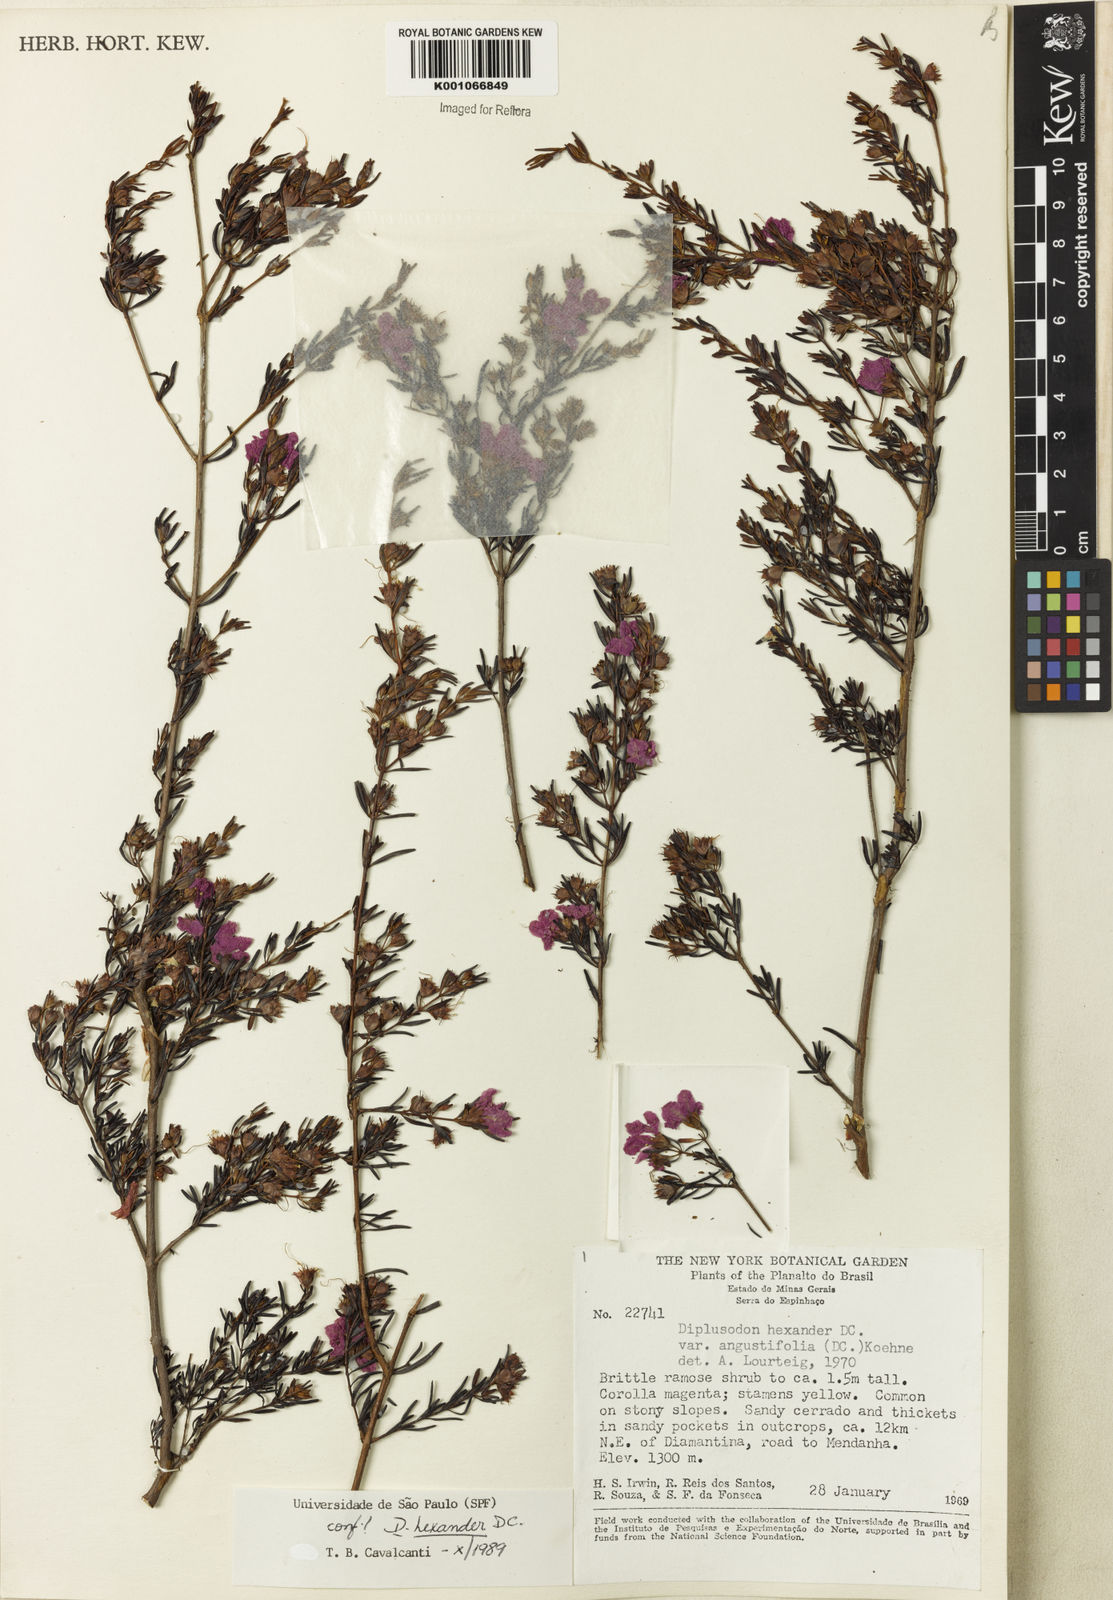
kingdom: Plantae
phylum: Tracheophyta
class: Magnoliopsida
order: Myrtales
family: Lythraceae
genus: Diplusodon
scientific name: Diplusodon hexander
